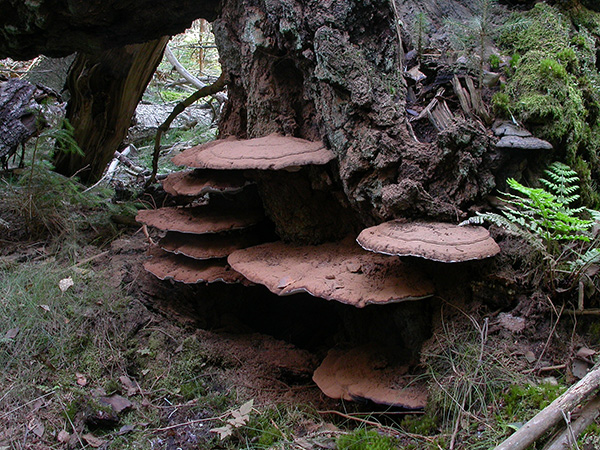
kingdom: Fungi
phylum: Basidiomycota
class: Agaricomycetes
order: Polyporales
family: Polyporaceae
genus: Ganoderma
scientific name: Ganoderma applanatum
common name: flad lakporesvamp
